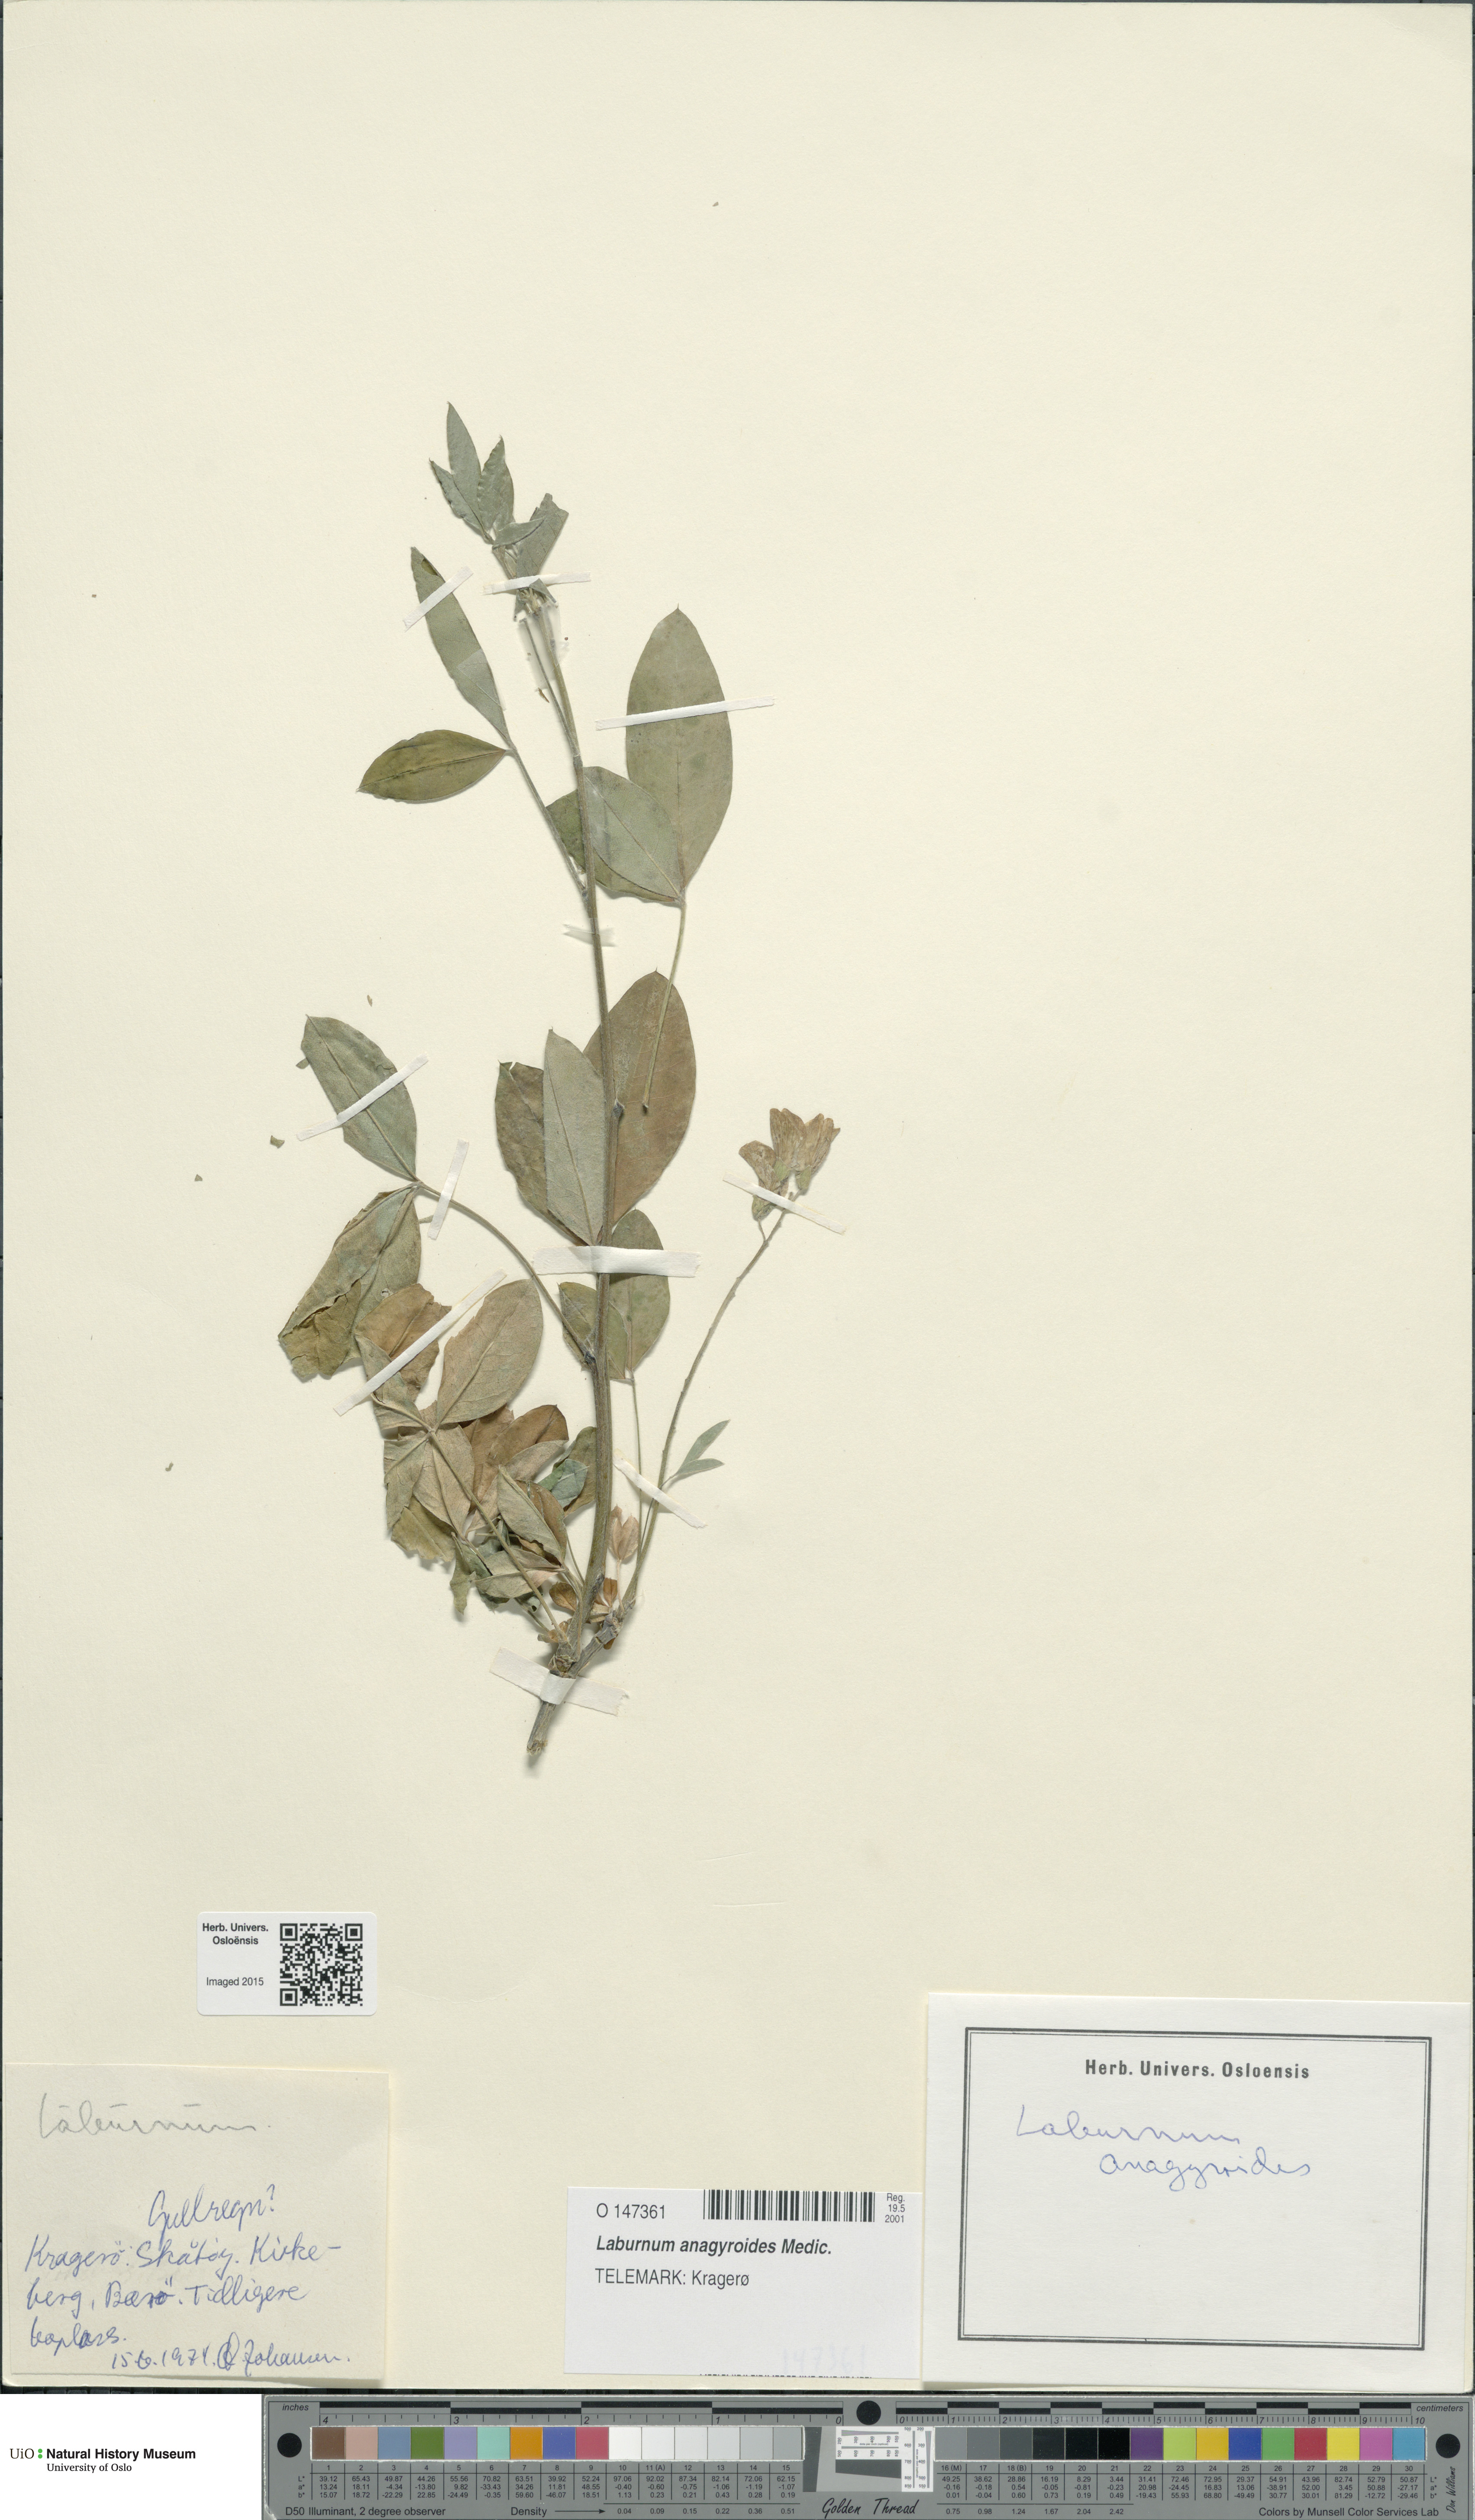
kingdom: Plantae
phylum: Tracheophyta
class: Magnoliopsida
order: Fabales
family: Fabaceae
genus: Laburnum
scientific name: Laburnum anagyroides
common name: Laburnum
